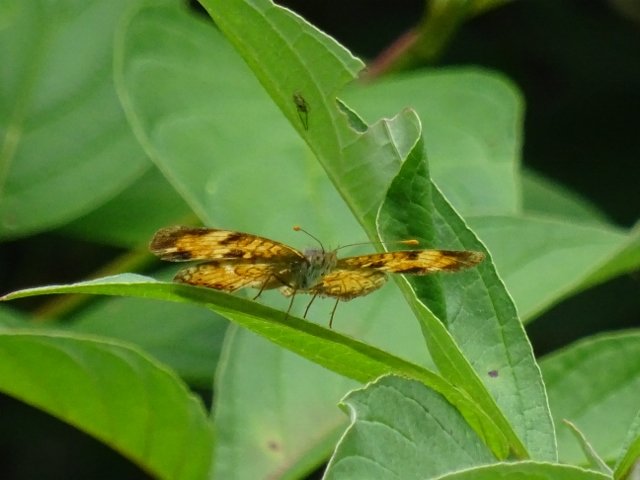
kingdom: Animalia
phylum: Arthropoda
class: Insecta
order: Lepidoptera
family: Nymphalidae
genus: Phyciodes
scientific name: Phyciodes tharos
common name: Northern Crescent
